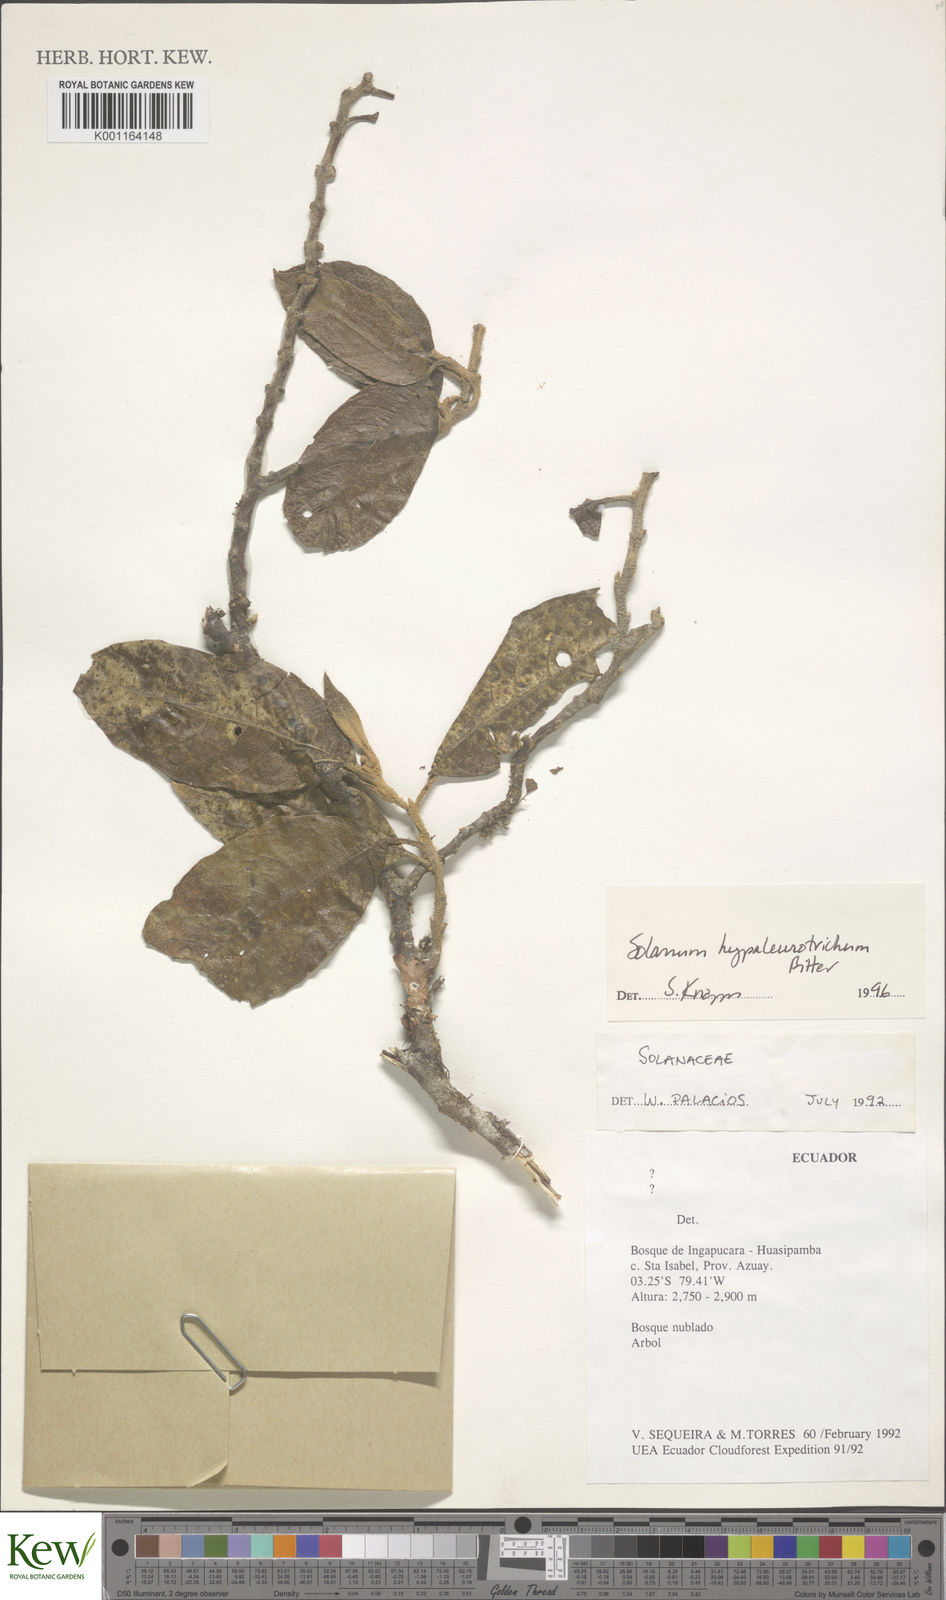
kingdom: Plantae
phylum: Tracheophyta
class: Magnoliopsida
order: Solanales
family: Solanaceae
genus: Solanum
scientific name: Solanum hypaleurotrichum
